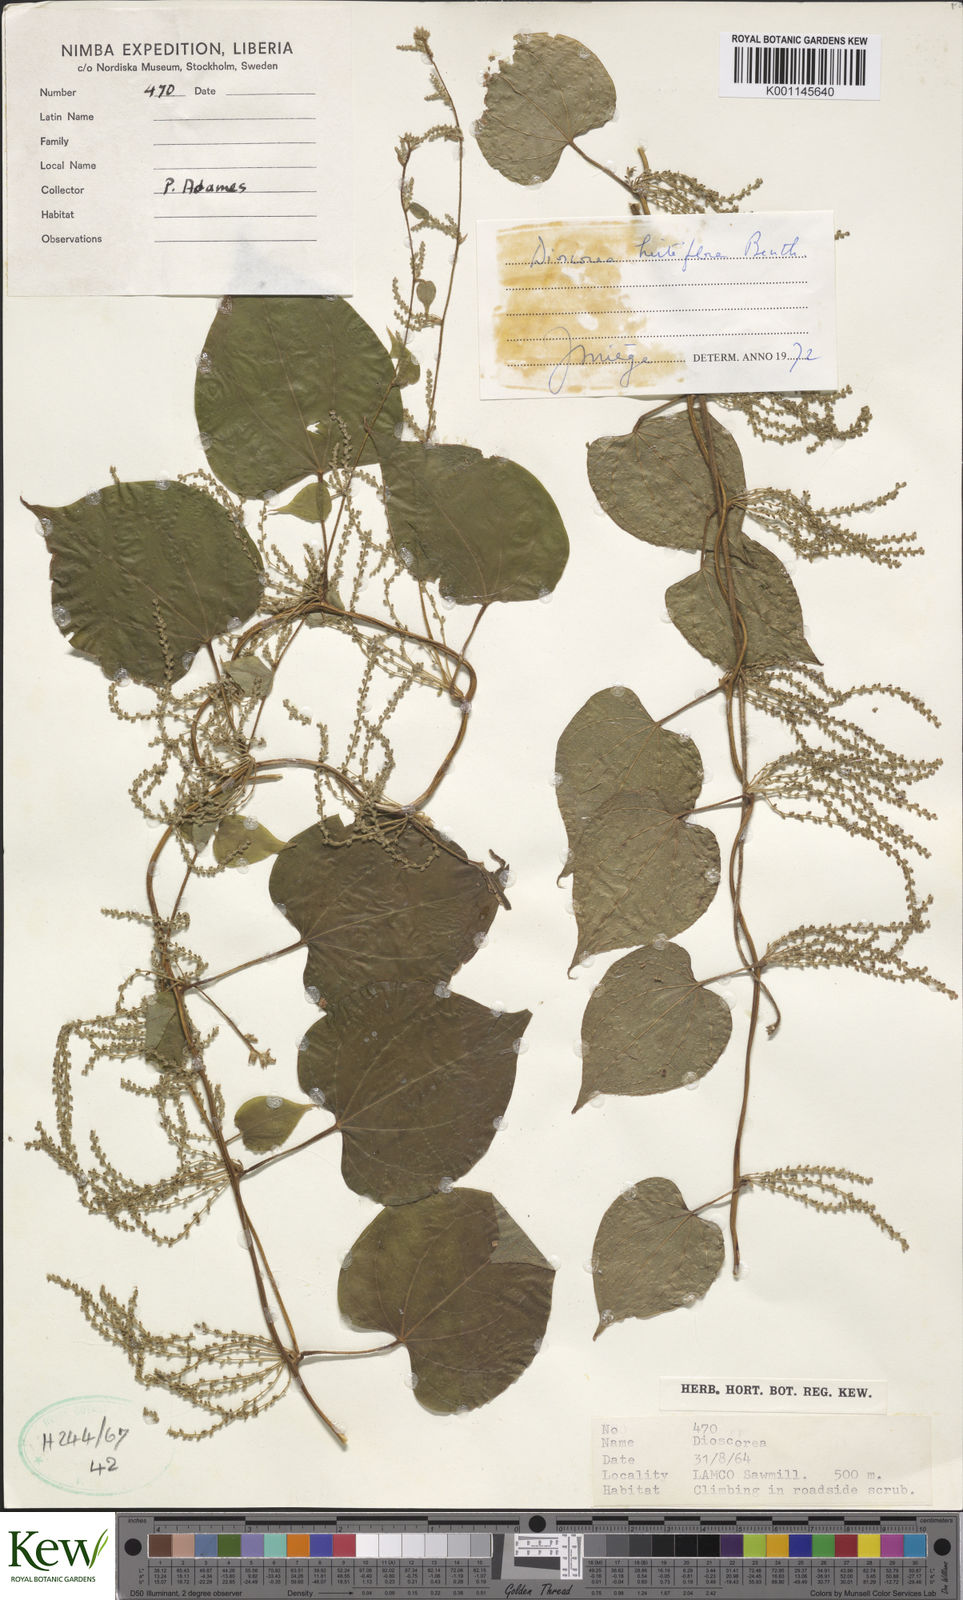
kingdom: Plantae
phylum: Tracheophyta
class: Liliopsida
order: Dioscoreales
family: Dioscoreaceae
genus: Dioscorea
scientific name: Dioscorea hirtiflora
